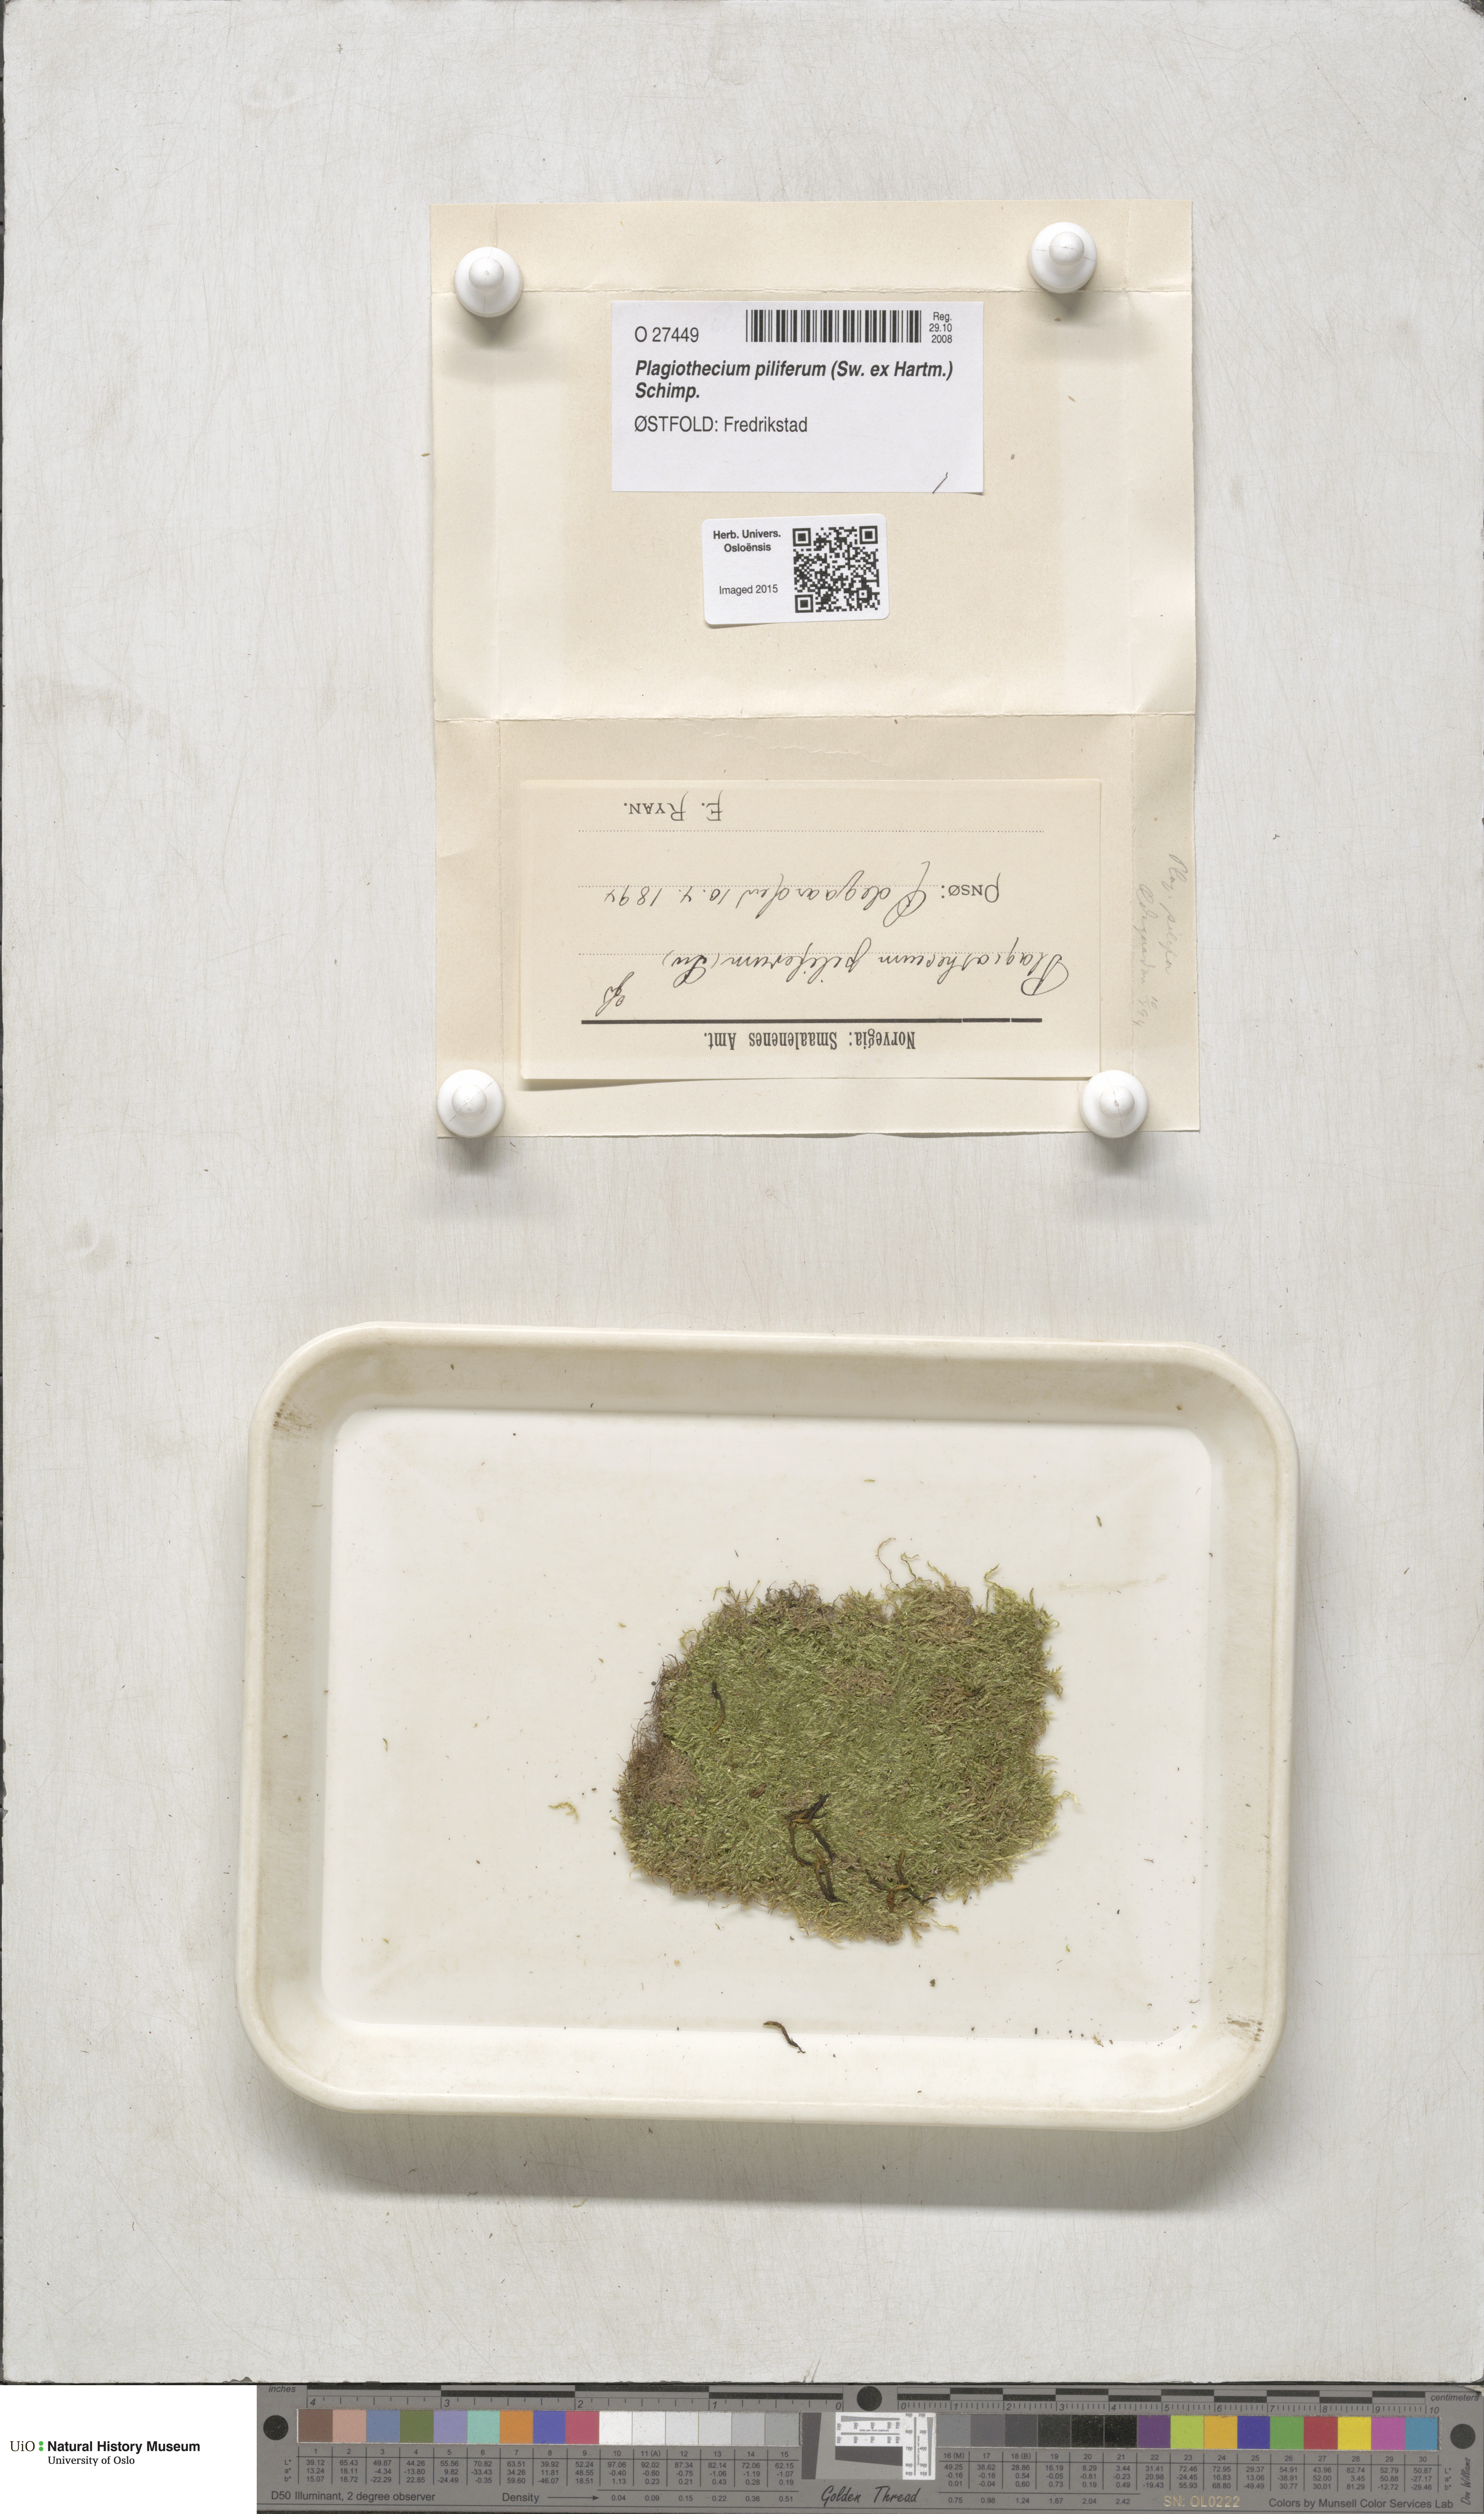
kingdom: Plantae
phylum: Bryophyta
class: Bryopsida
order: Hypnales
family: Plagiotheciaceae
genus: Rectithecium
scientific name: Rectithecium piliferum
